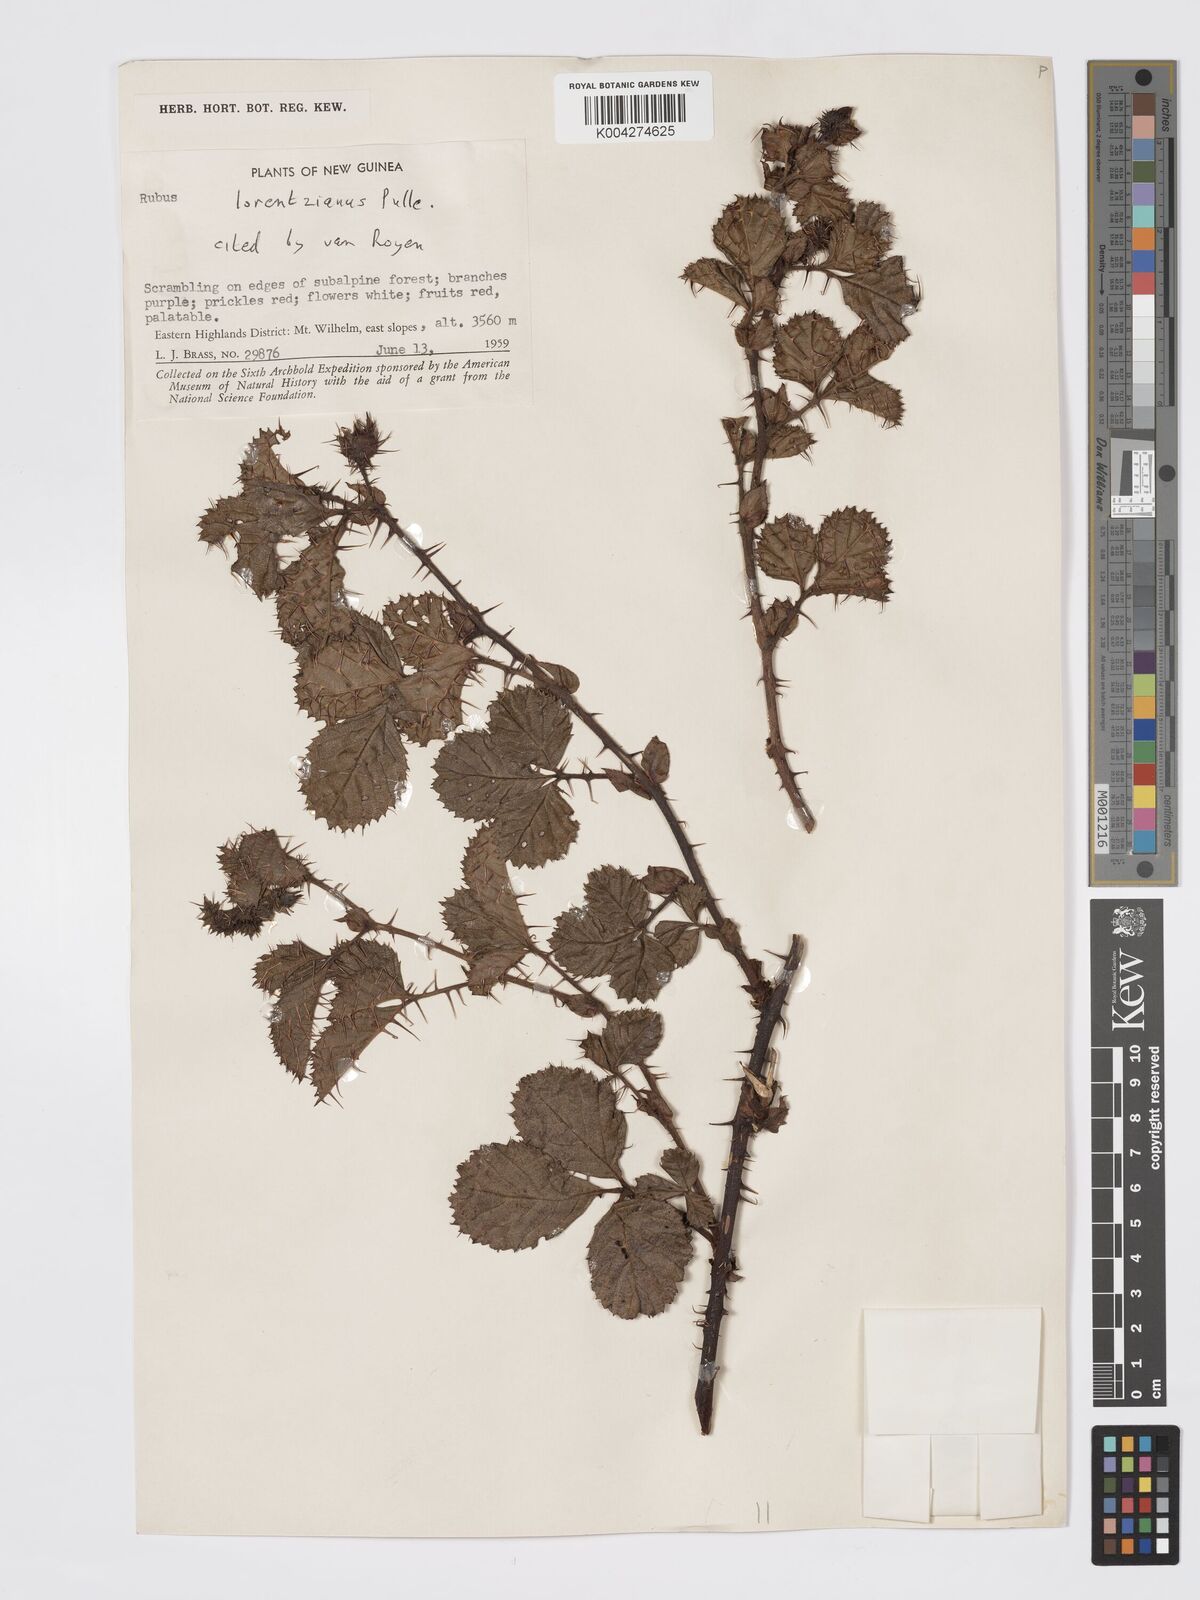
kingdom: Plantae
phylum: Tracheophyta
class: Magnoliopsida
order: Rosales
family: Rosaceae
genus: Rubus
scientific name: Rubus lorentzianus
